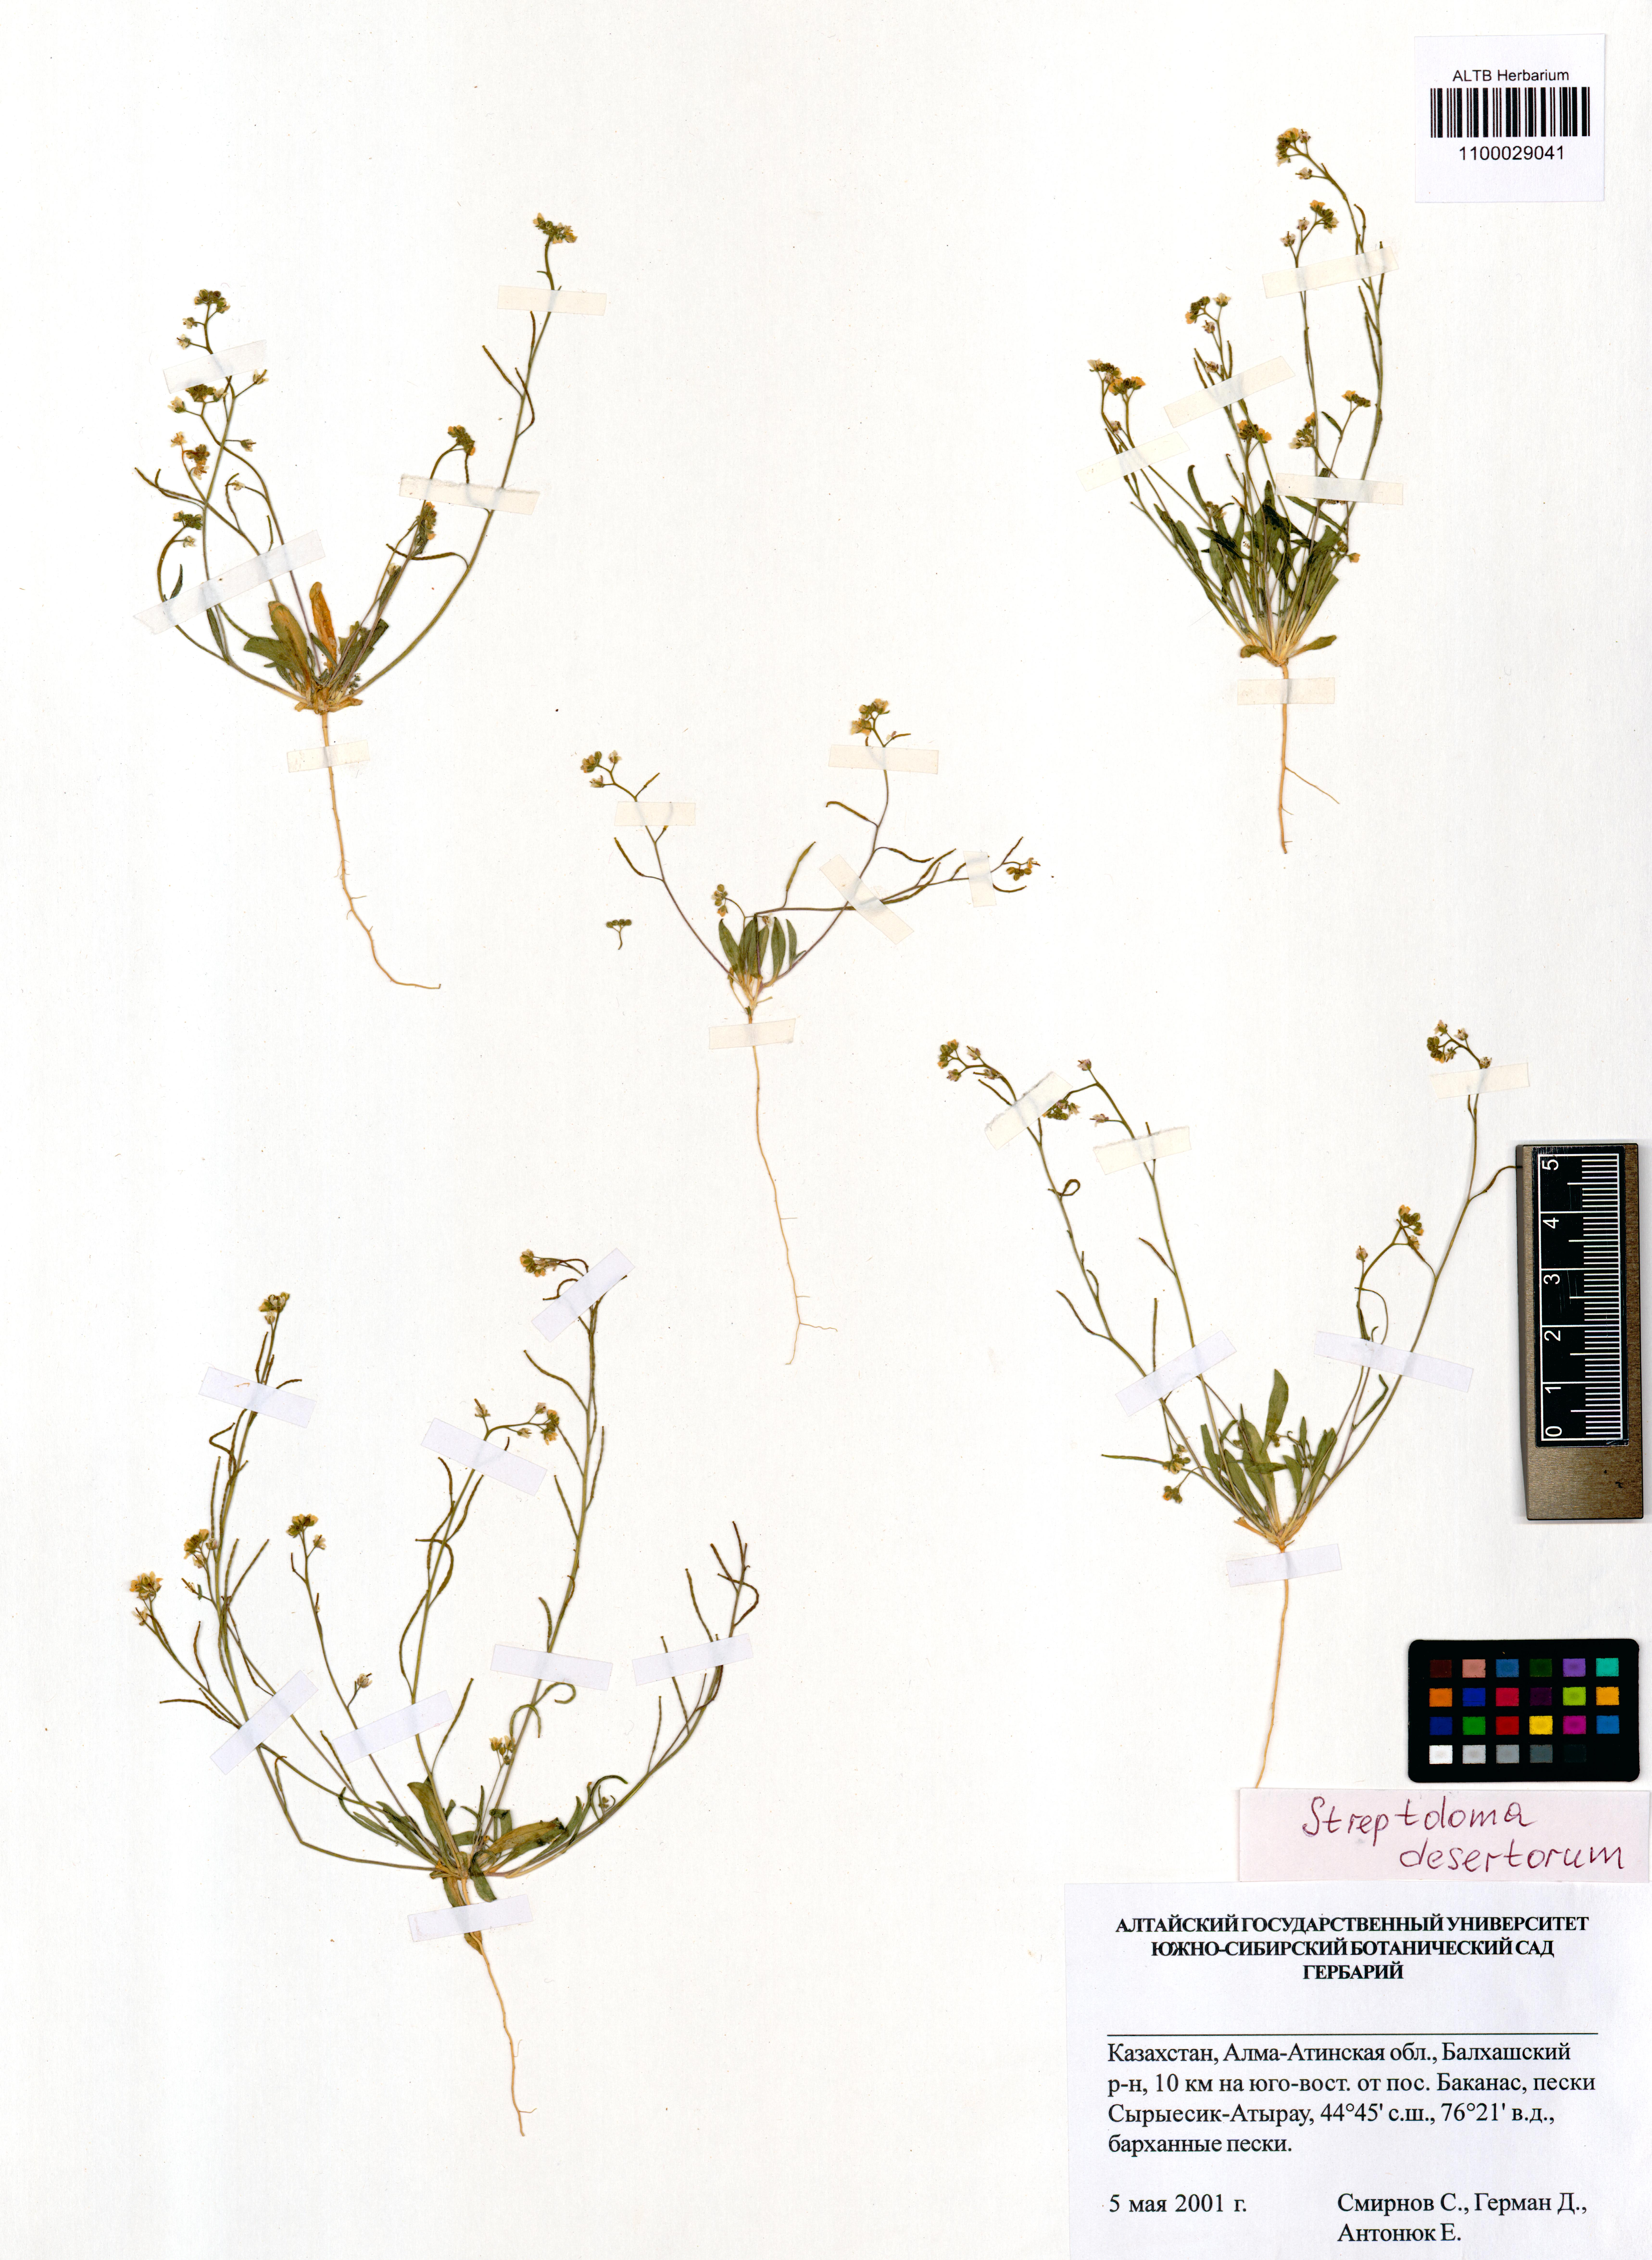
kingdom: Plantae
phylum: Tracheophyta
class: Magnoliopsida
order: Brassicales
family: Brassicaceae
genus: Streptoloma
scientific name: Streptoloma desertorum
